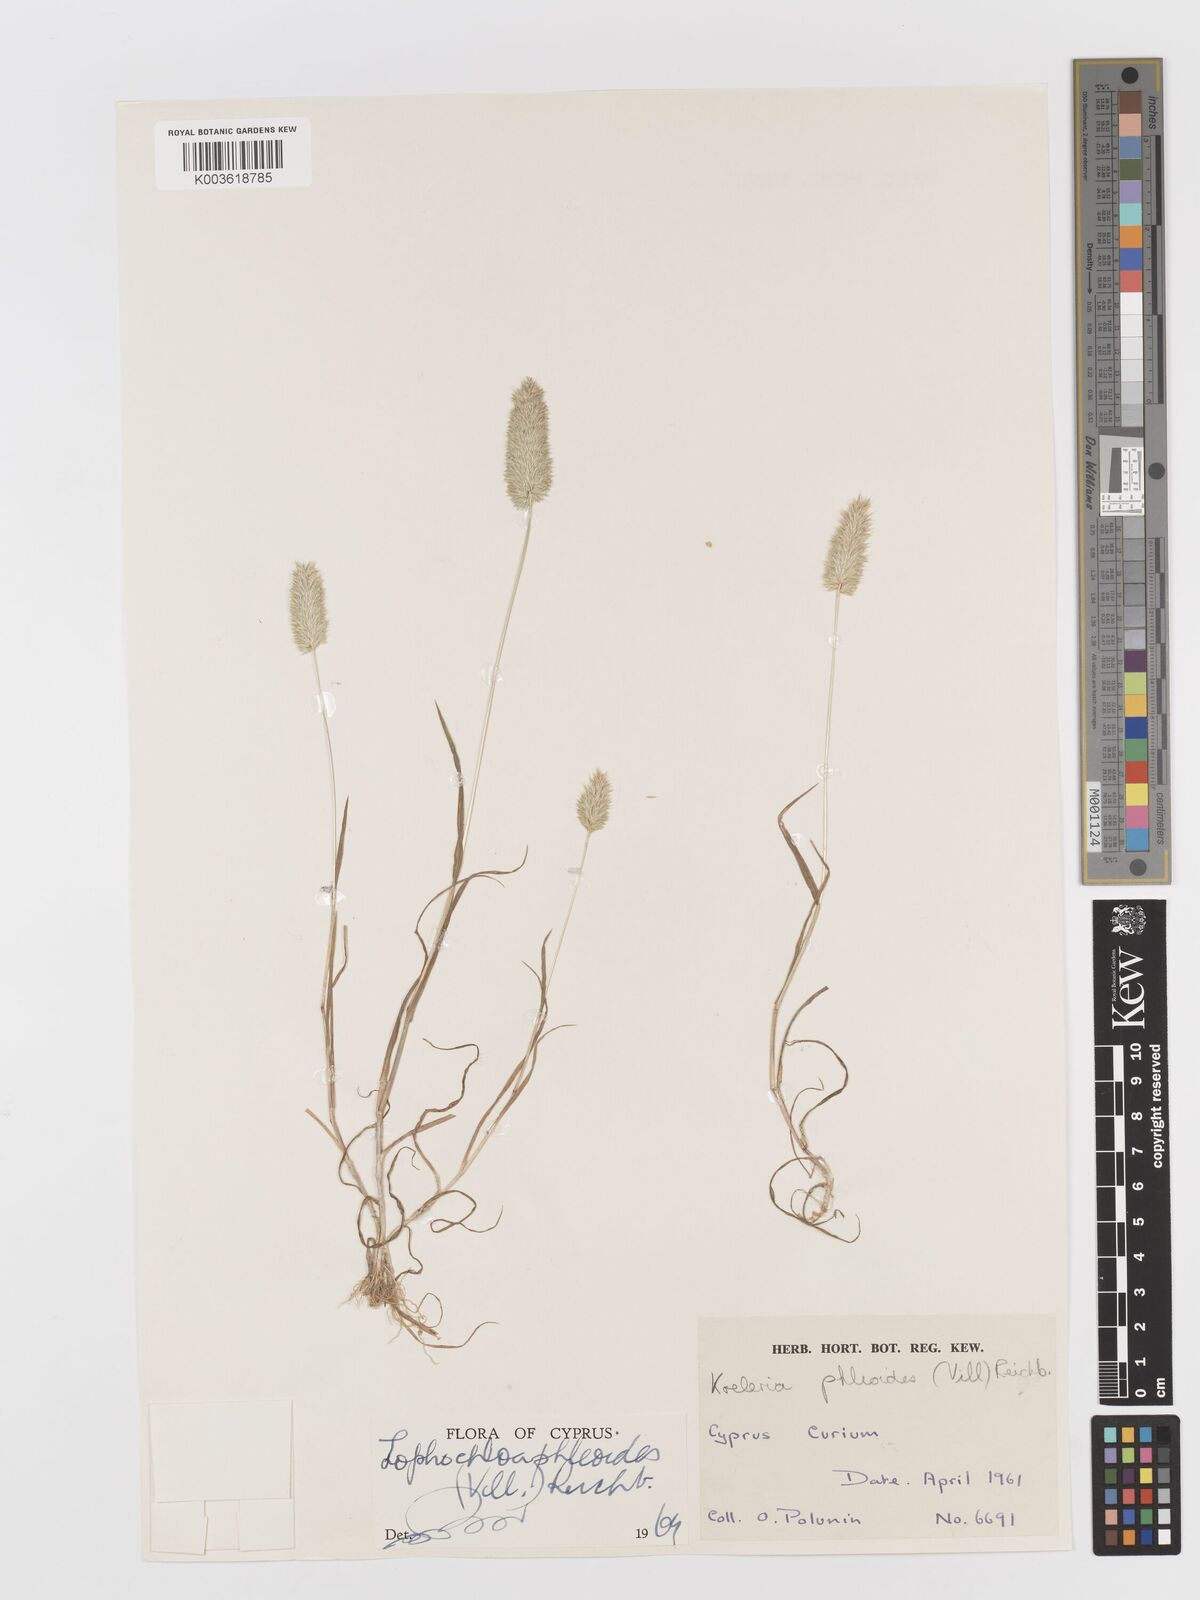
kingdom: Plantae
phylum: Tracheophyta
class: Liliopsida
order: Poales
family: Poaceae
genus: Rostraria
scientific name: Rostraria cristata
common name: Mediterranean hair-grass
